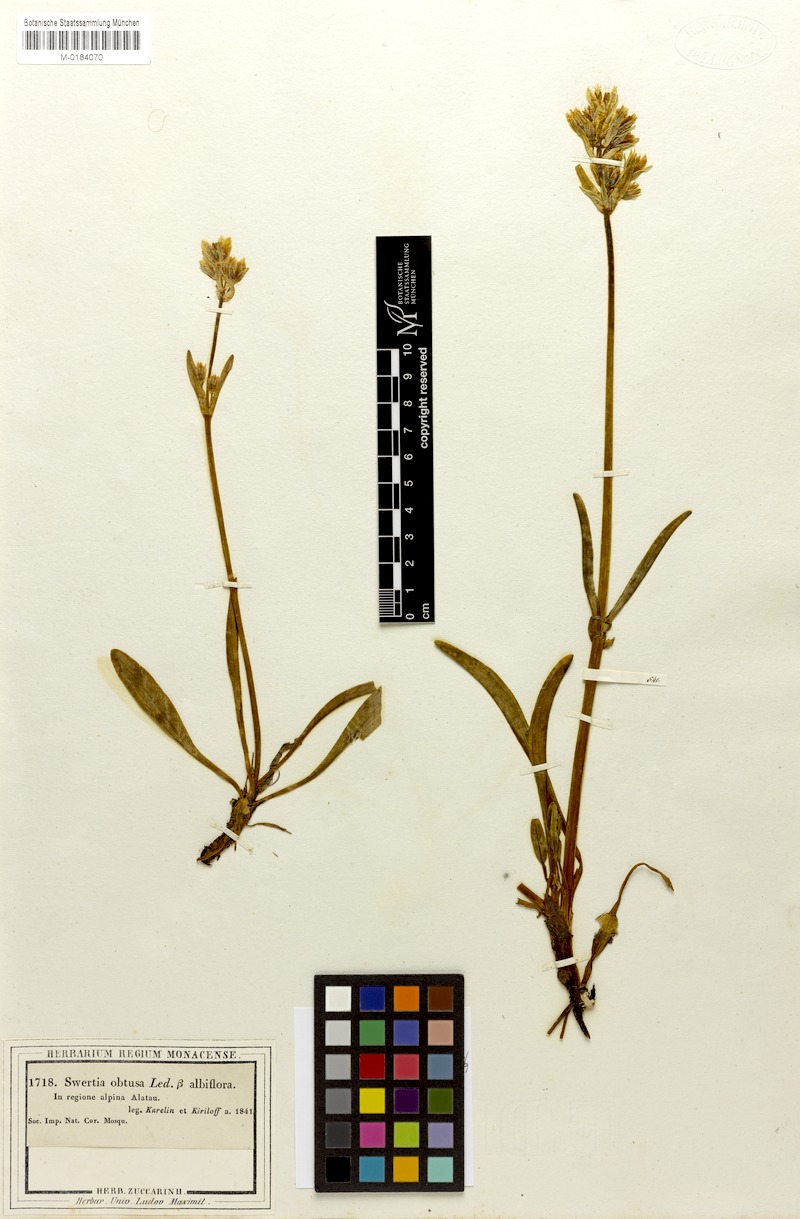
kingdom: Plantae
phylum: Tracheophyta
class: Magnoliopsida
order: Gentianales
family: Gentianaceae
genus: Swertia
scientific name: Swertia marginata
